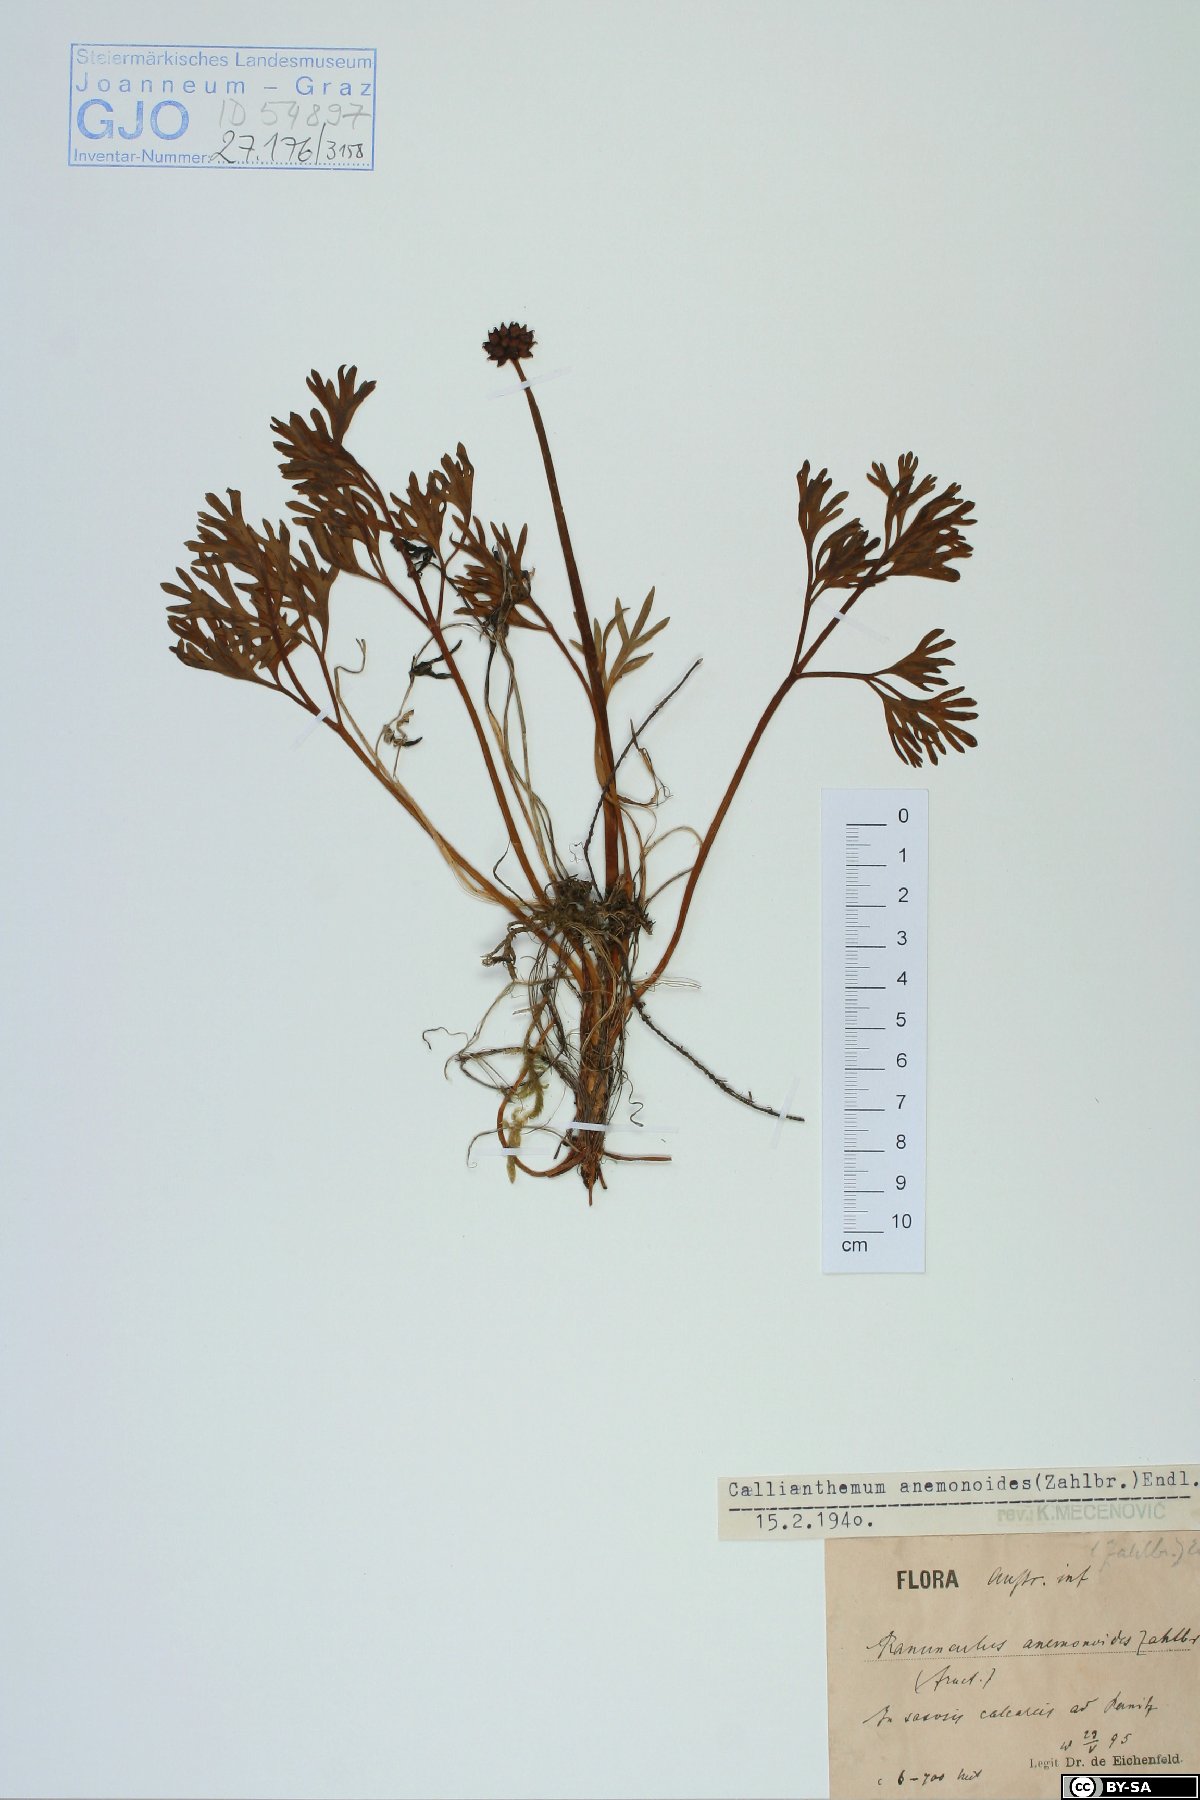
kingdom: Plantae
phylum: Tracheophyta
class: Magnoliopsida
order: Ranunculales
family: Ranunculaceae
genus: Callianthemum
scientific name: Callianthemum anemonoides
